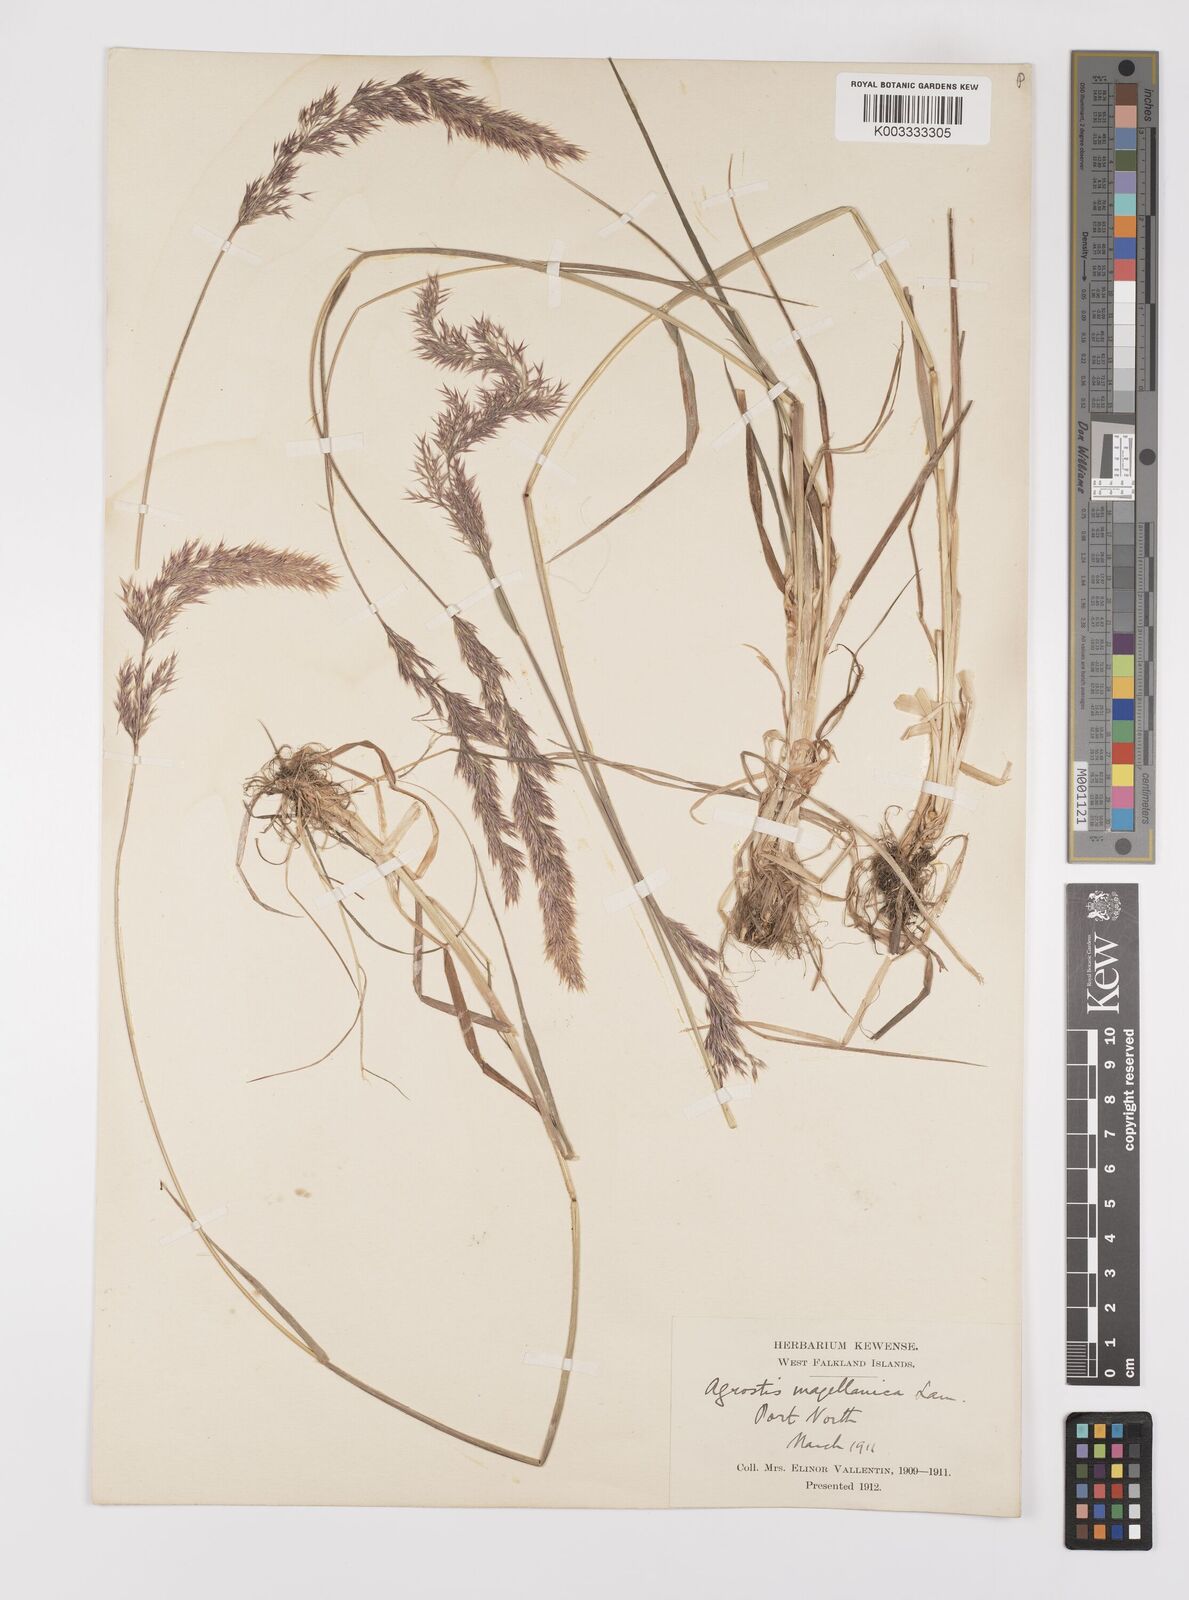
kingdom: Plantae
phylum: Tracheophyta
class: Liliopsida
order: Poales
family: Poaceae
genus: Polypogon
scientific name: Polypogon magellanicus
